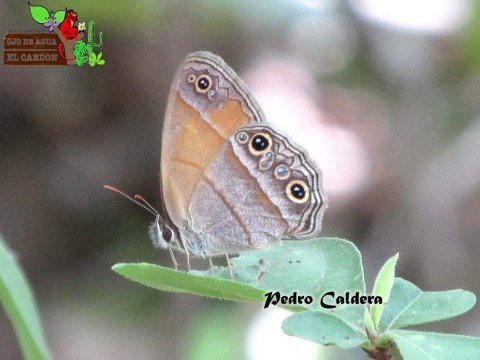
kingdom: Animalia
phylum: Arthropoda
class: Insecta
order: Lepidoptera
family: Nymphalidae
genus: Euptychia
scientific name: Euptychia
